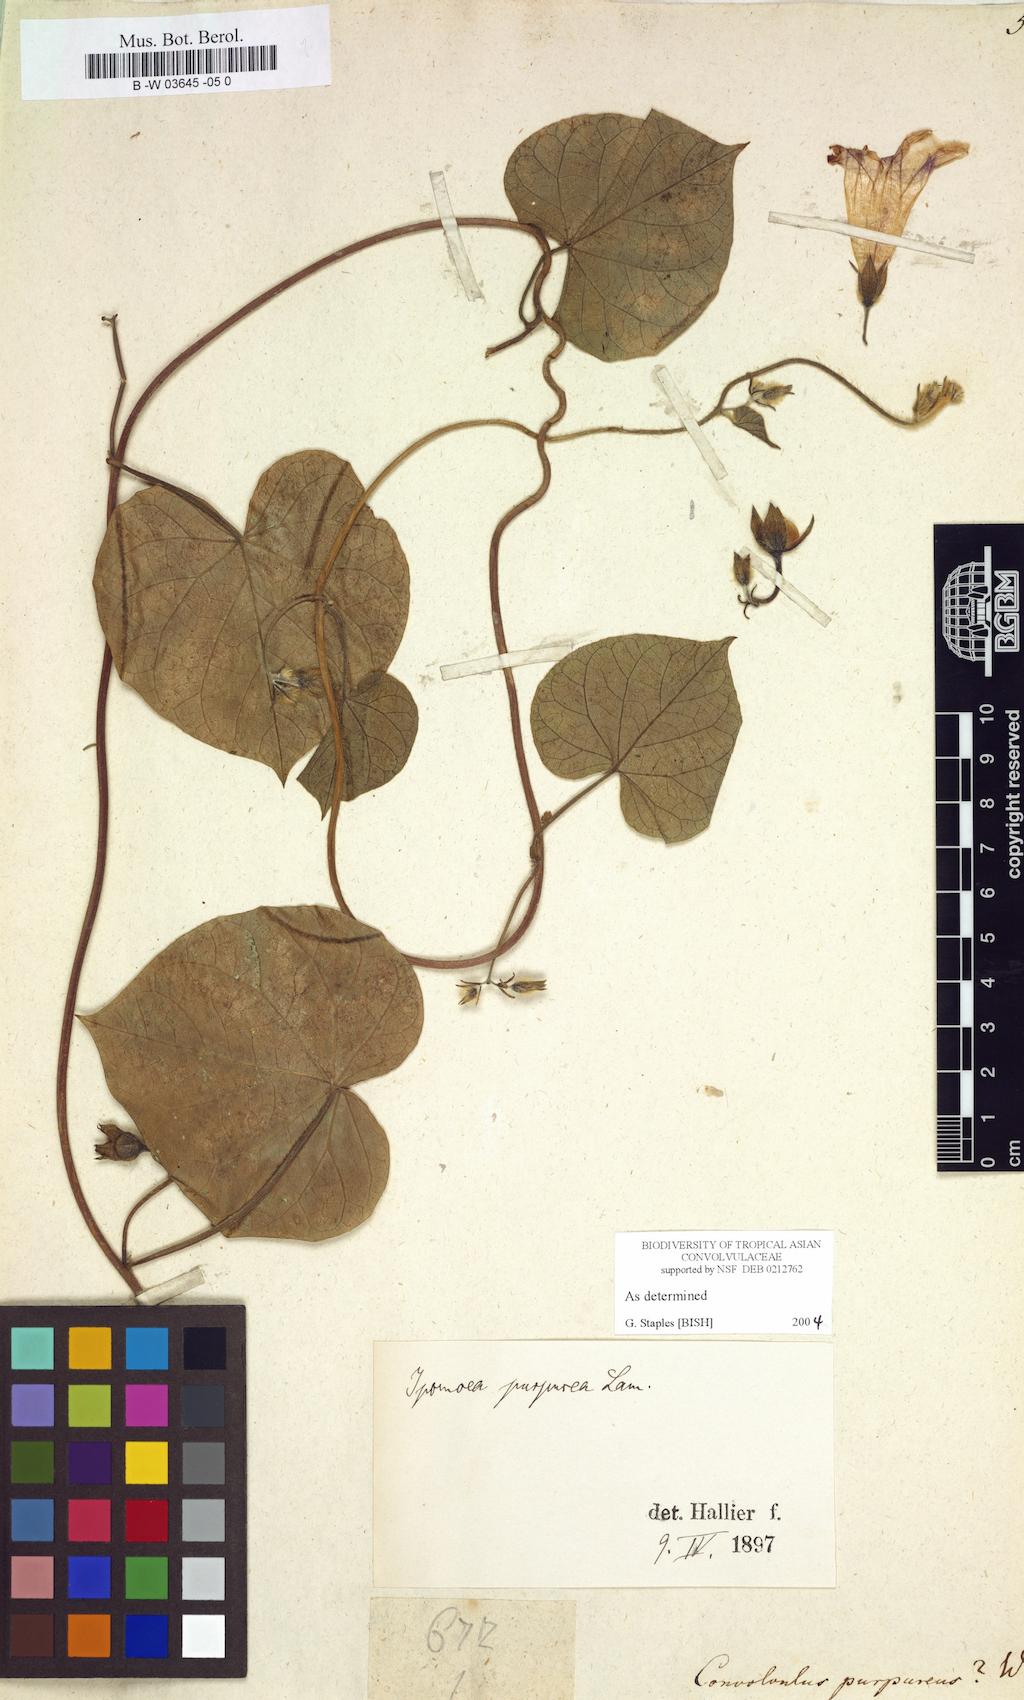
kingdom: Plantae
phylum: Tracheophyta
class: Magnoliopsida
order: Solanales
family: Convolvulaceae
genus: Ipomoea
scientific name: Ipomoea purpurea
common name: Common morning-glory
